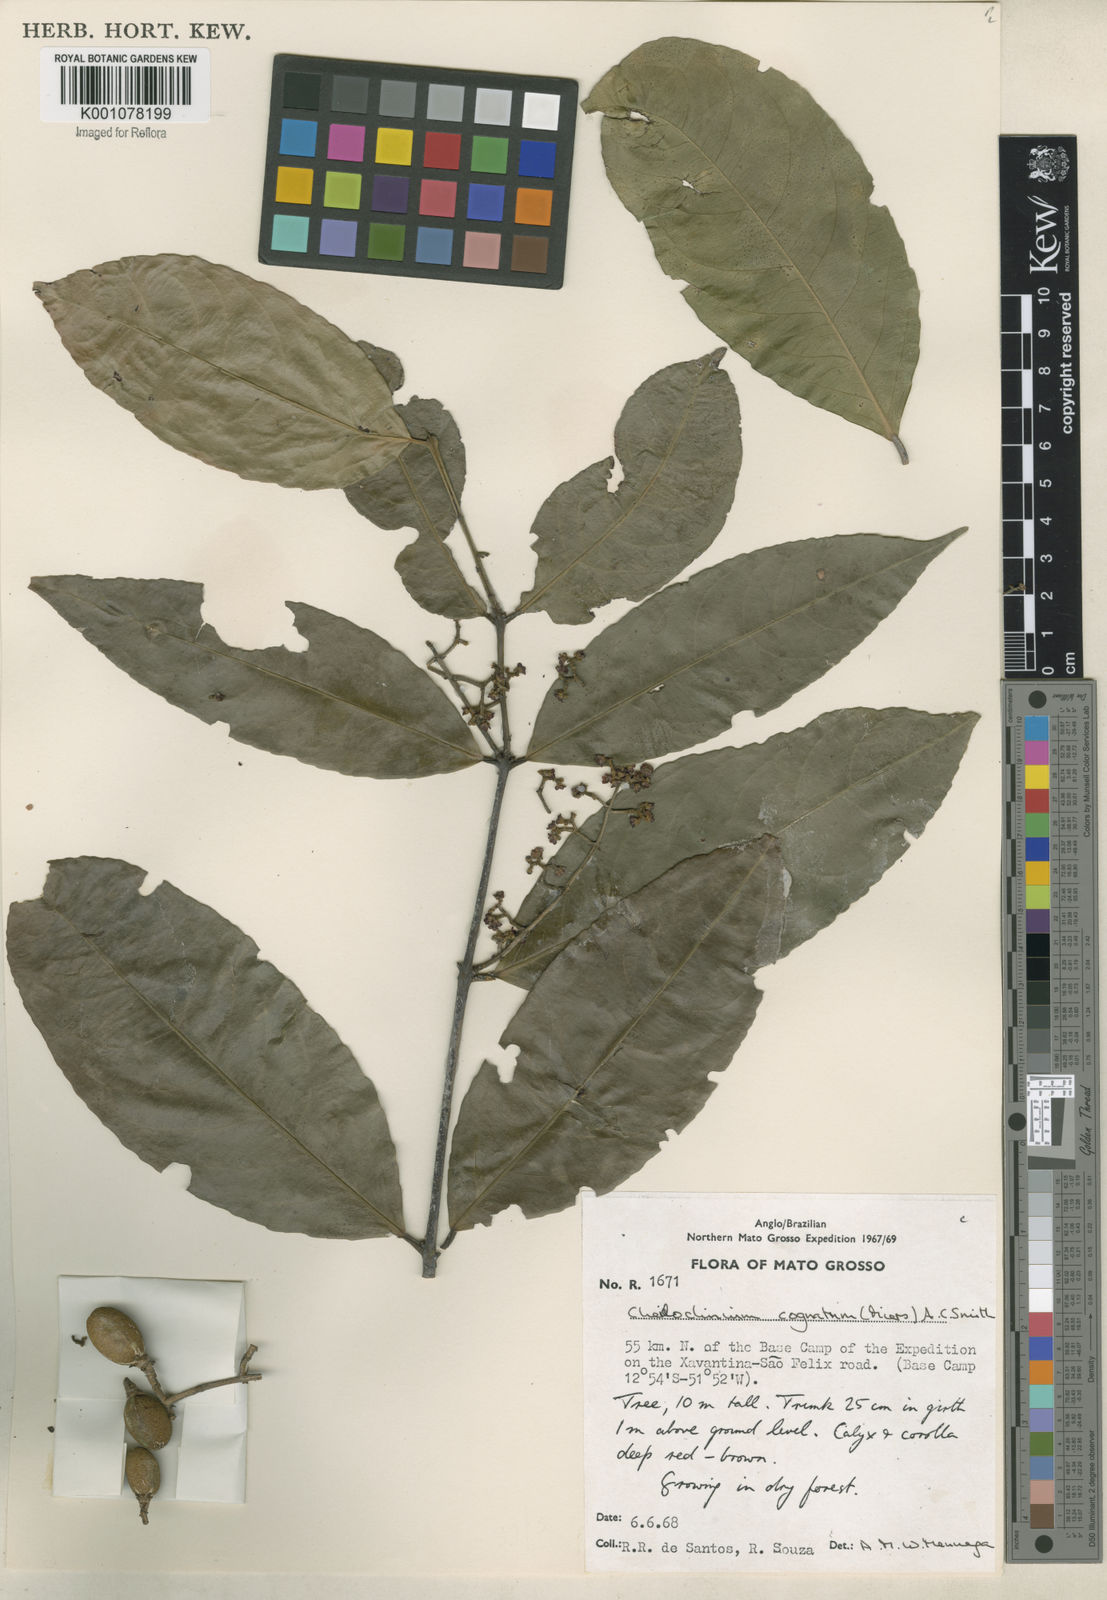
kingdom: Plantae
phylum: Tracheophyta
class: Magnoliopsida
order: Celastrales
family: Celastraceae
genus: Cheiloclinium
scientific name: Cheiloclinium cognatum
